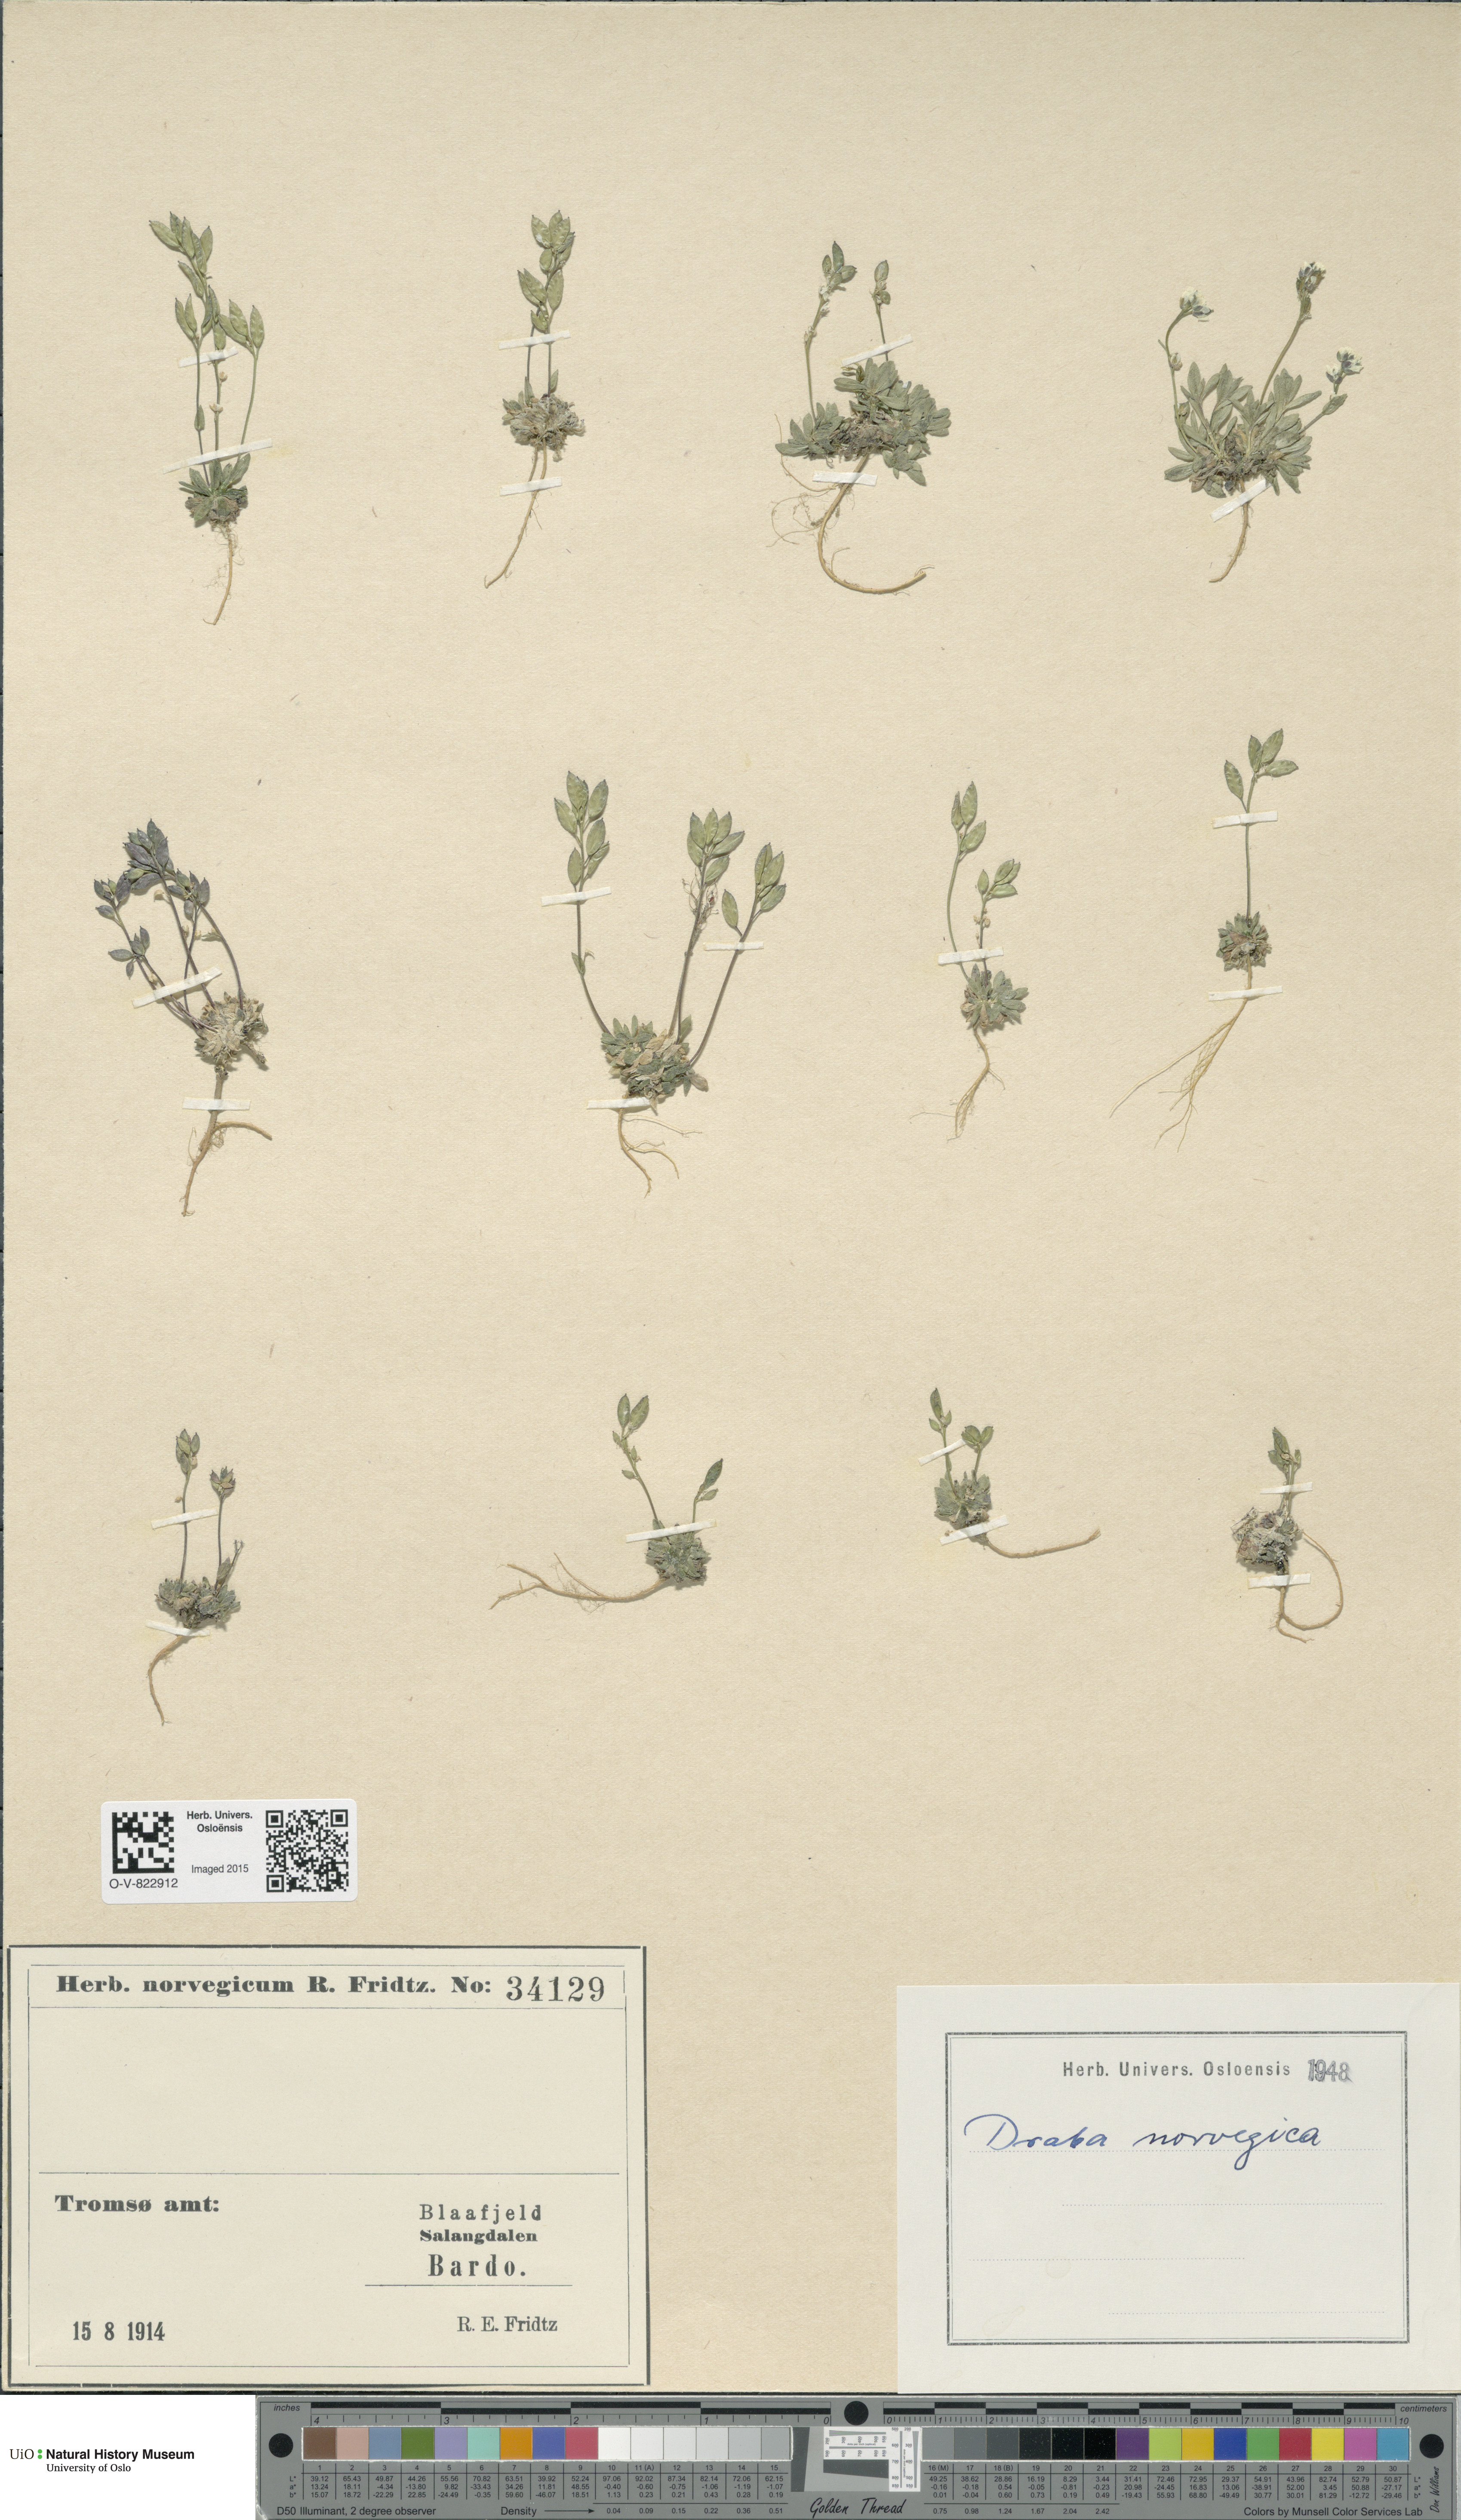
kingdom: Plantae
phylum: Tracheophyta
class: Magnoliopsida
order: Brassicales
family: Brassicaceae
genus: Draba
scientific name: Draba norvegica
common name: Rock whitlowgrass
